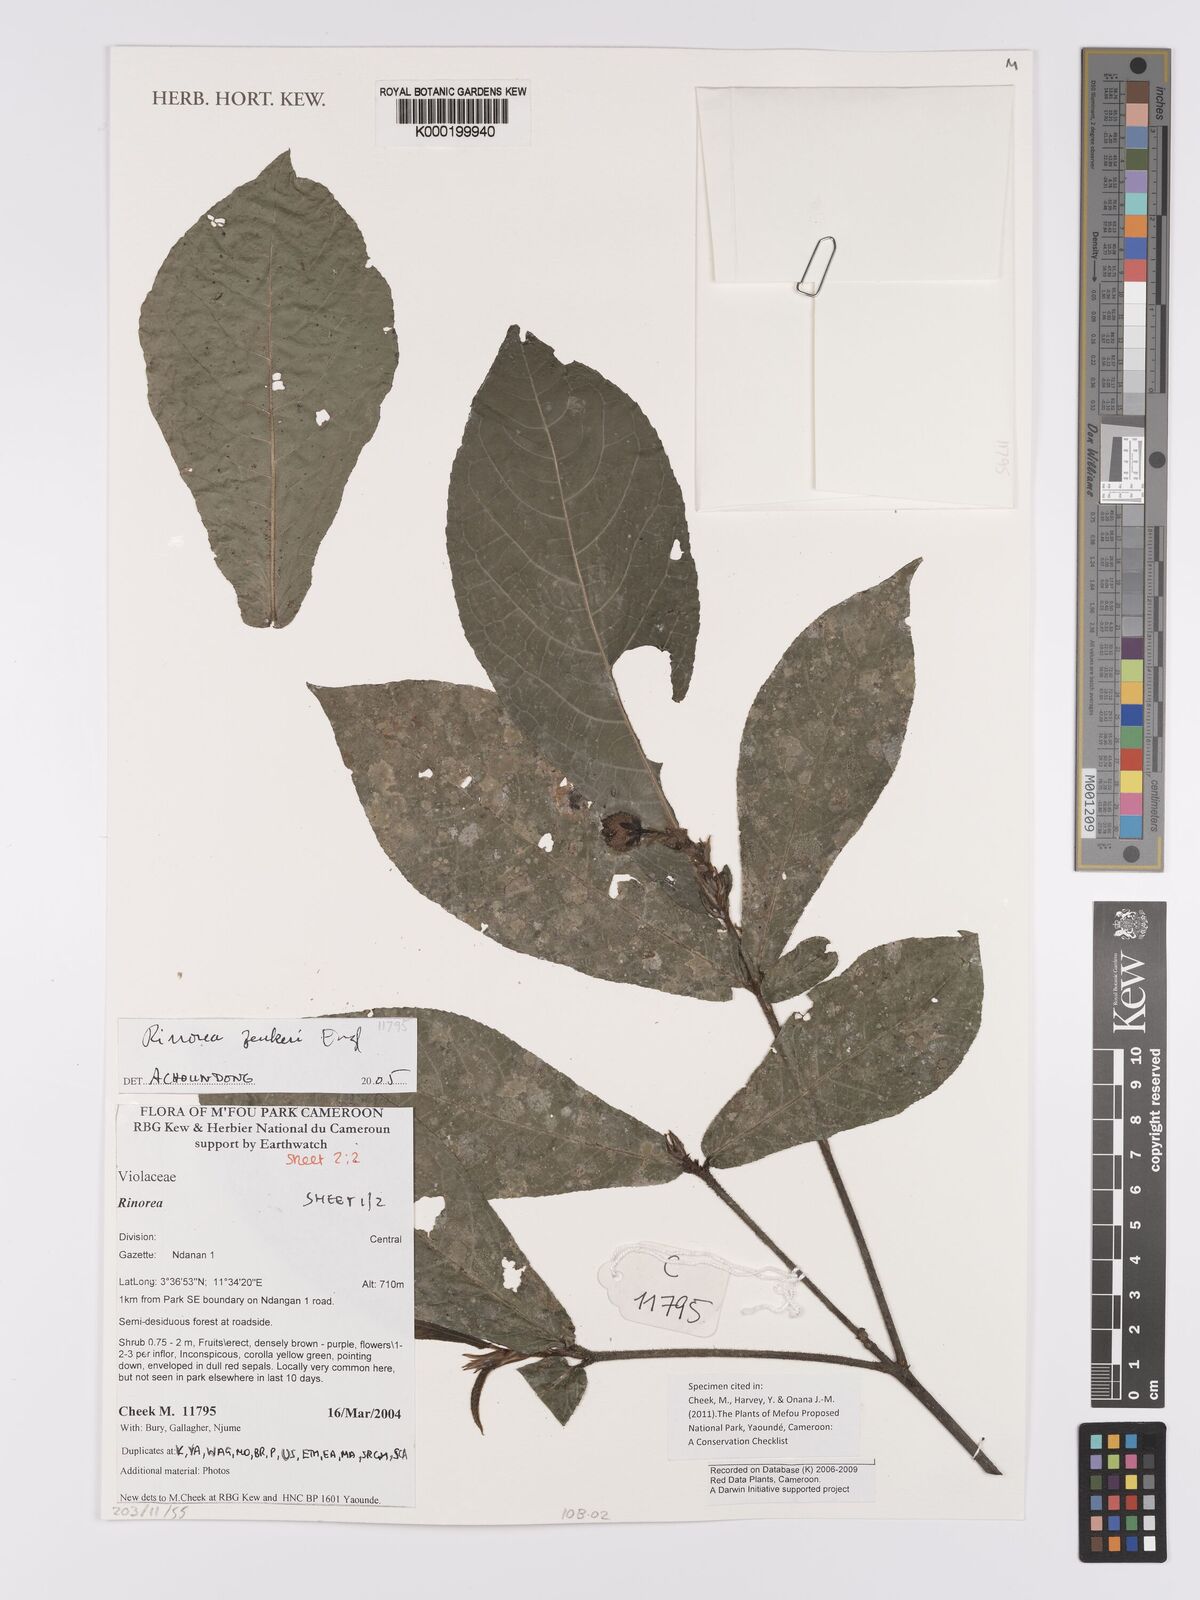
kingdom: Plantae
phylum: Tracheophyta
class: Magnoliopsida
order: Malpighiales
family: Violaceae
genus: Rinorea
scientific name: Rinorea zenkeri
